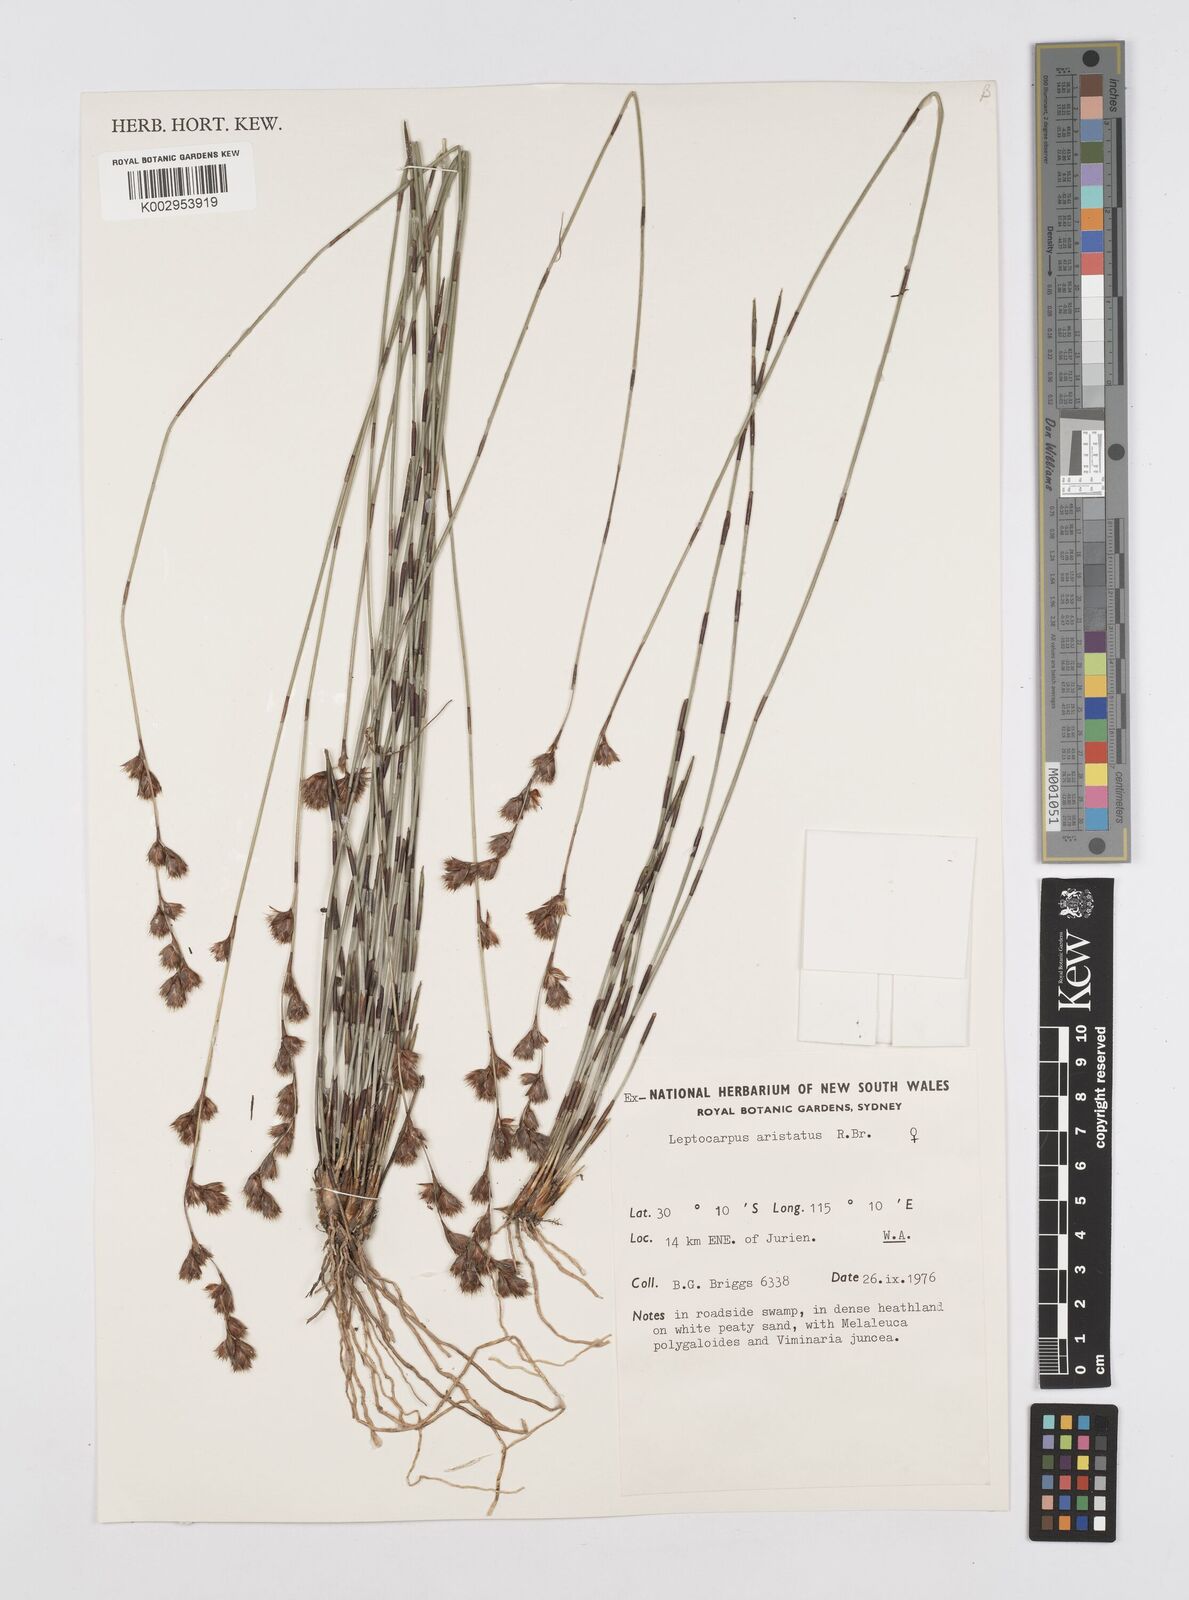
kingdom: Plantae
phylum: Tracheophyta
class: Liliopsida
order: Poales
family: Restionaceae
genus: Chaetanthus
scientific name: Chaetanthus aristatus
